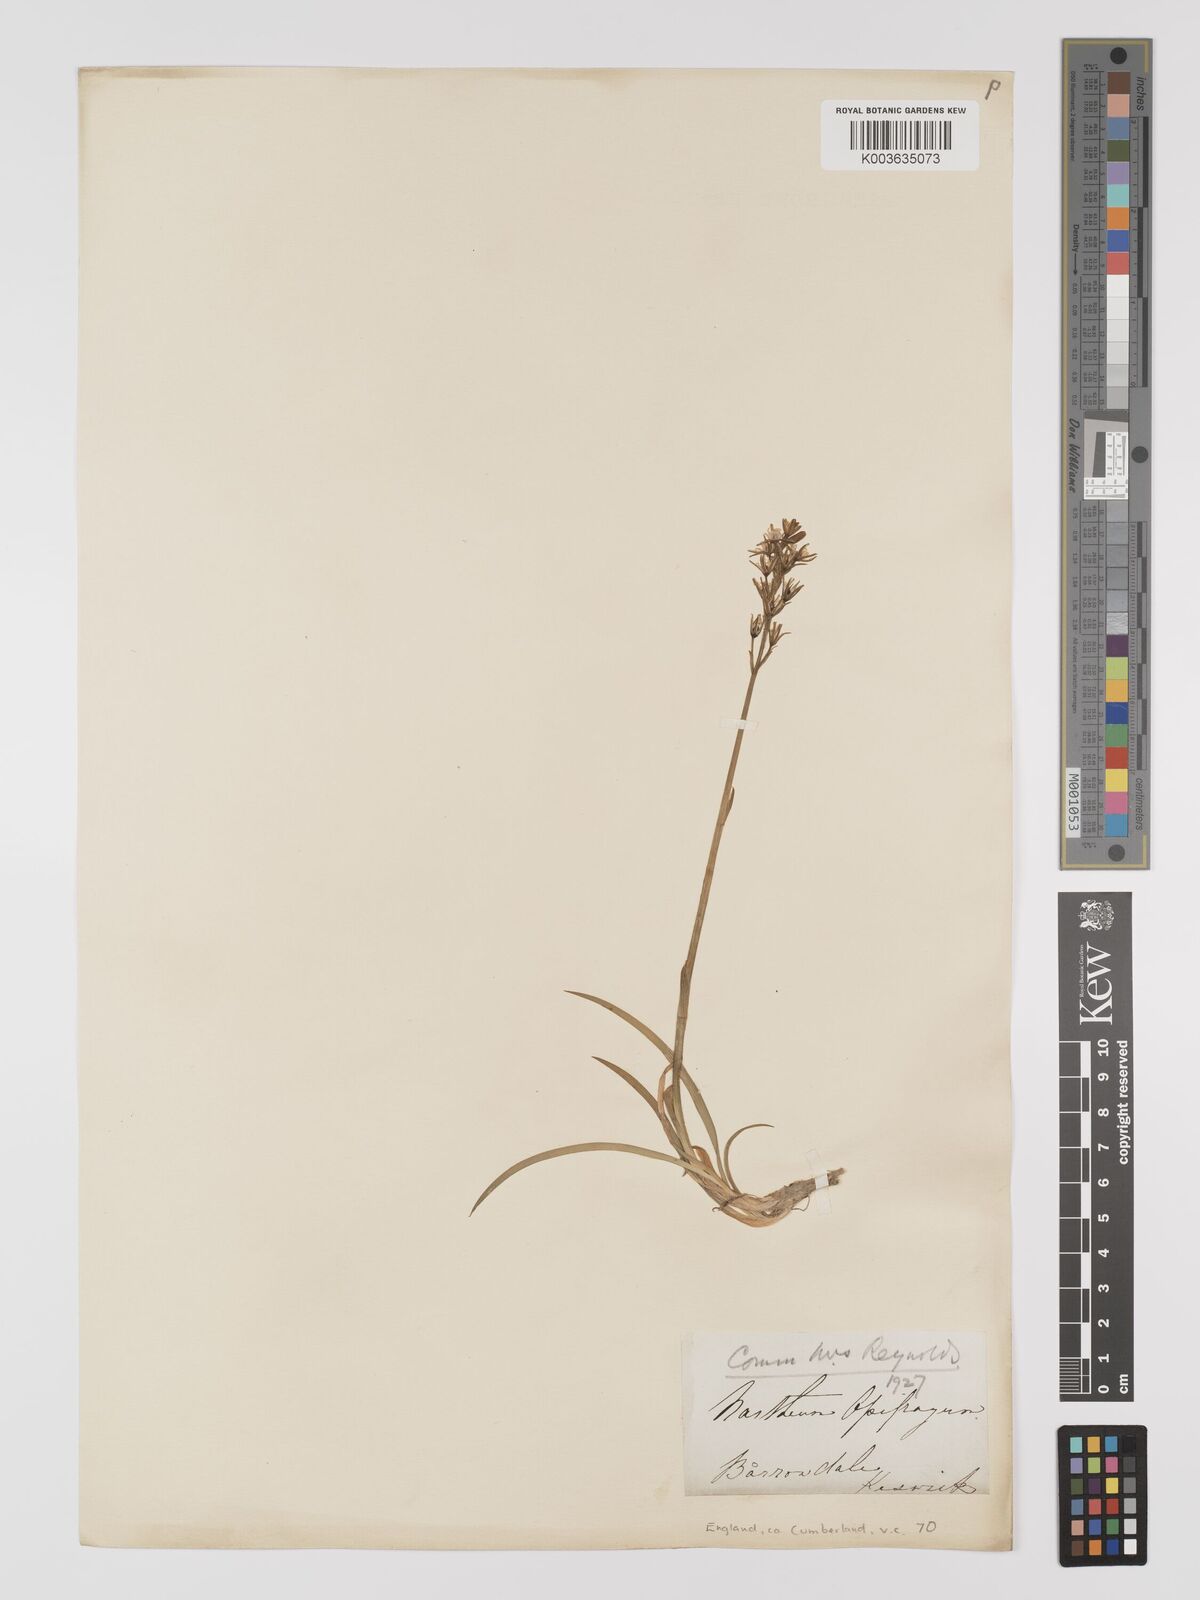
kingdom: Plantae
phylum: Tracheophyta
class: Liliopsida
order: Dioscoreales
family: Nartheciaceae
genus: Narthecium
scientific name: Narthecium
